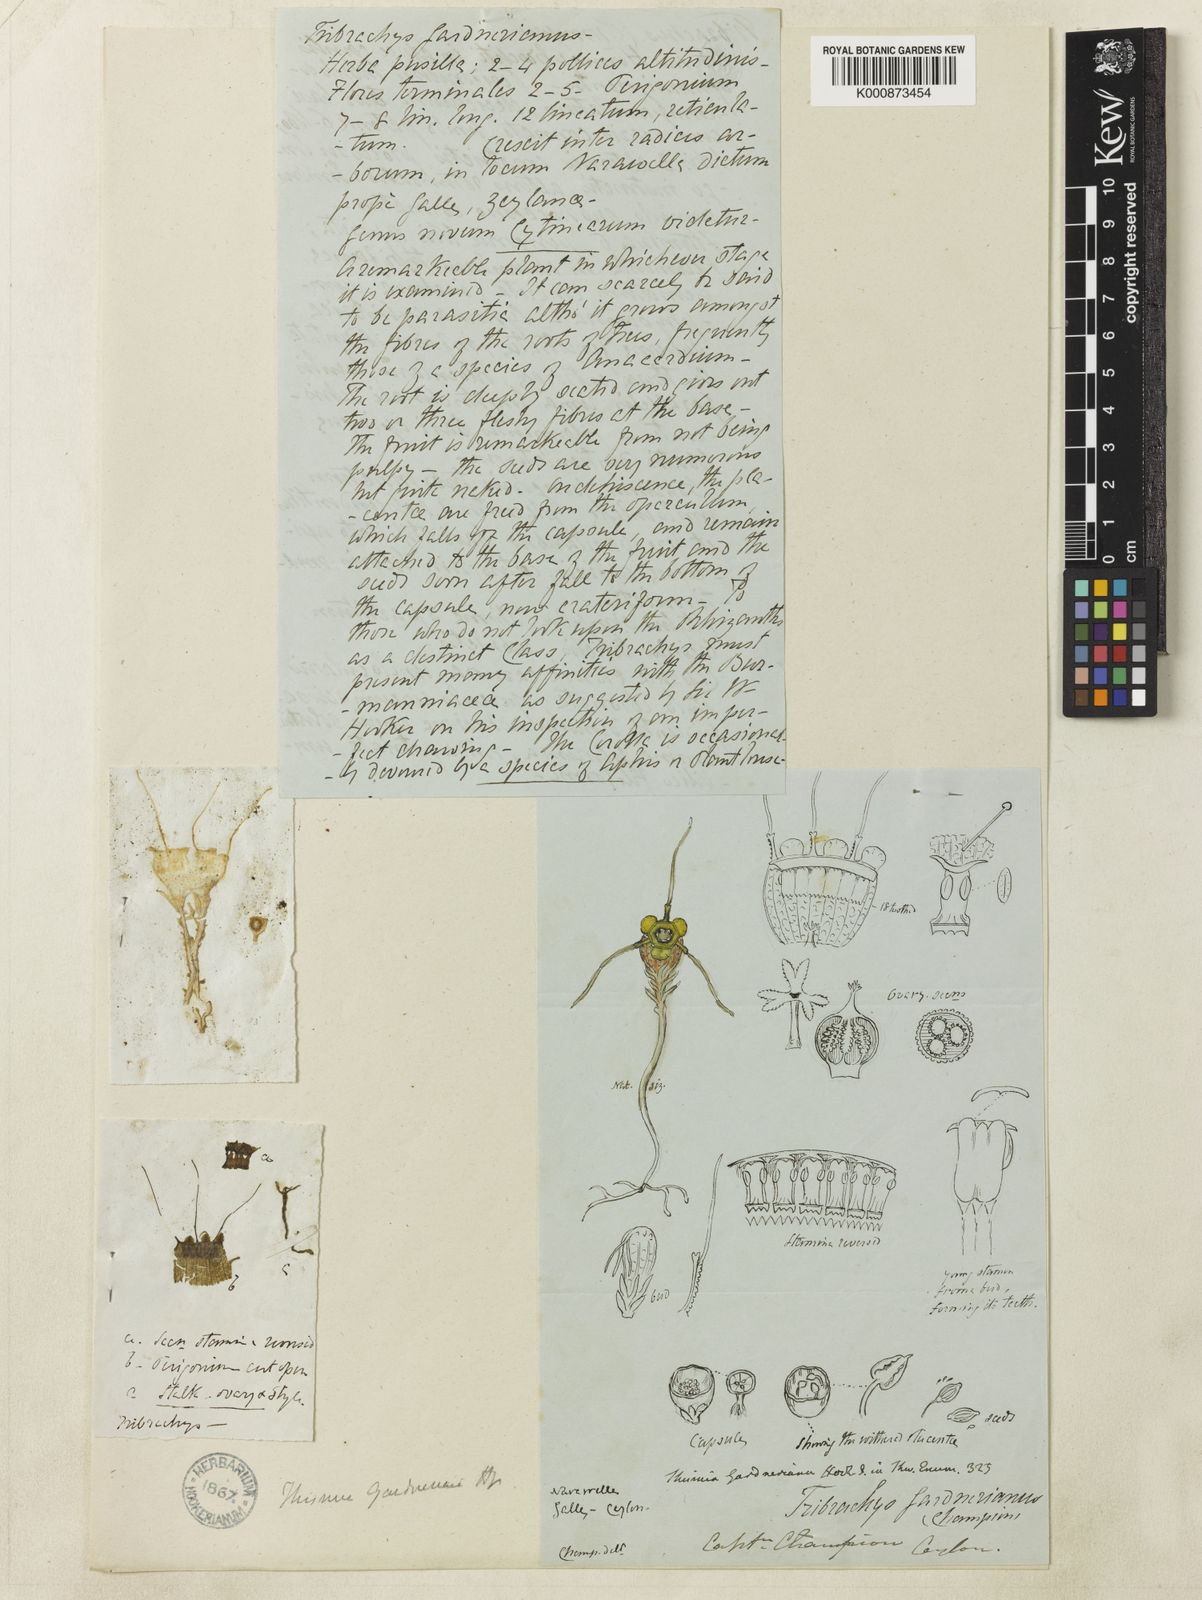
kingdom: Plantae
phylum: Tracheophyta
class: Liliopsida
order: Dioscoreales
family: Burmanniaceae
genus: Thismia
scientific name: Thismia gardneriana
